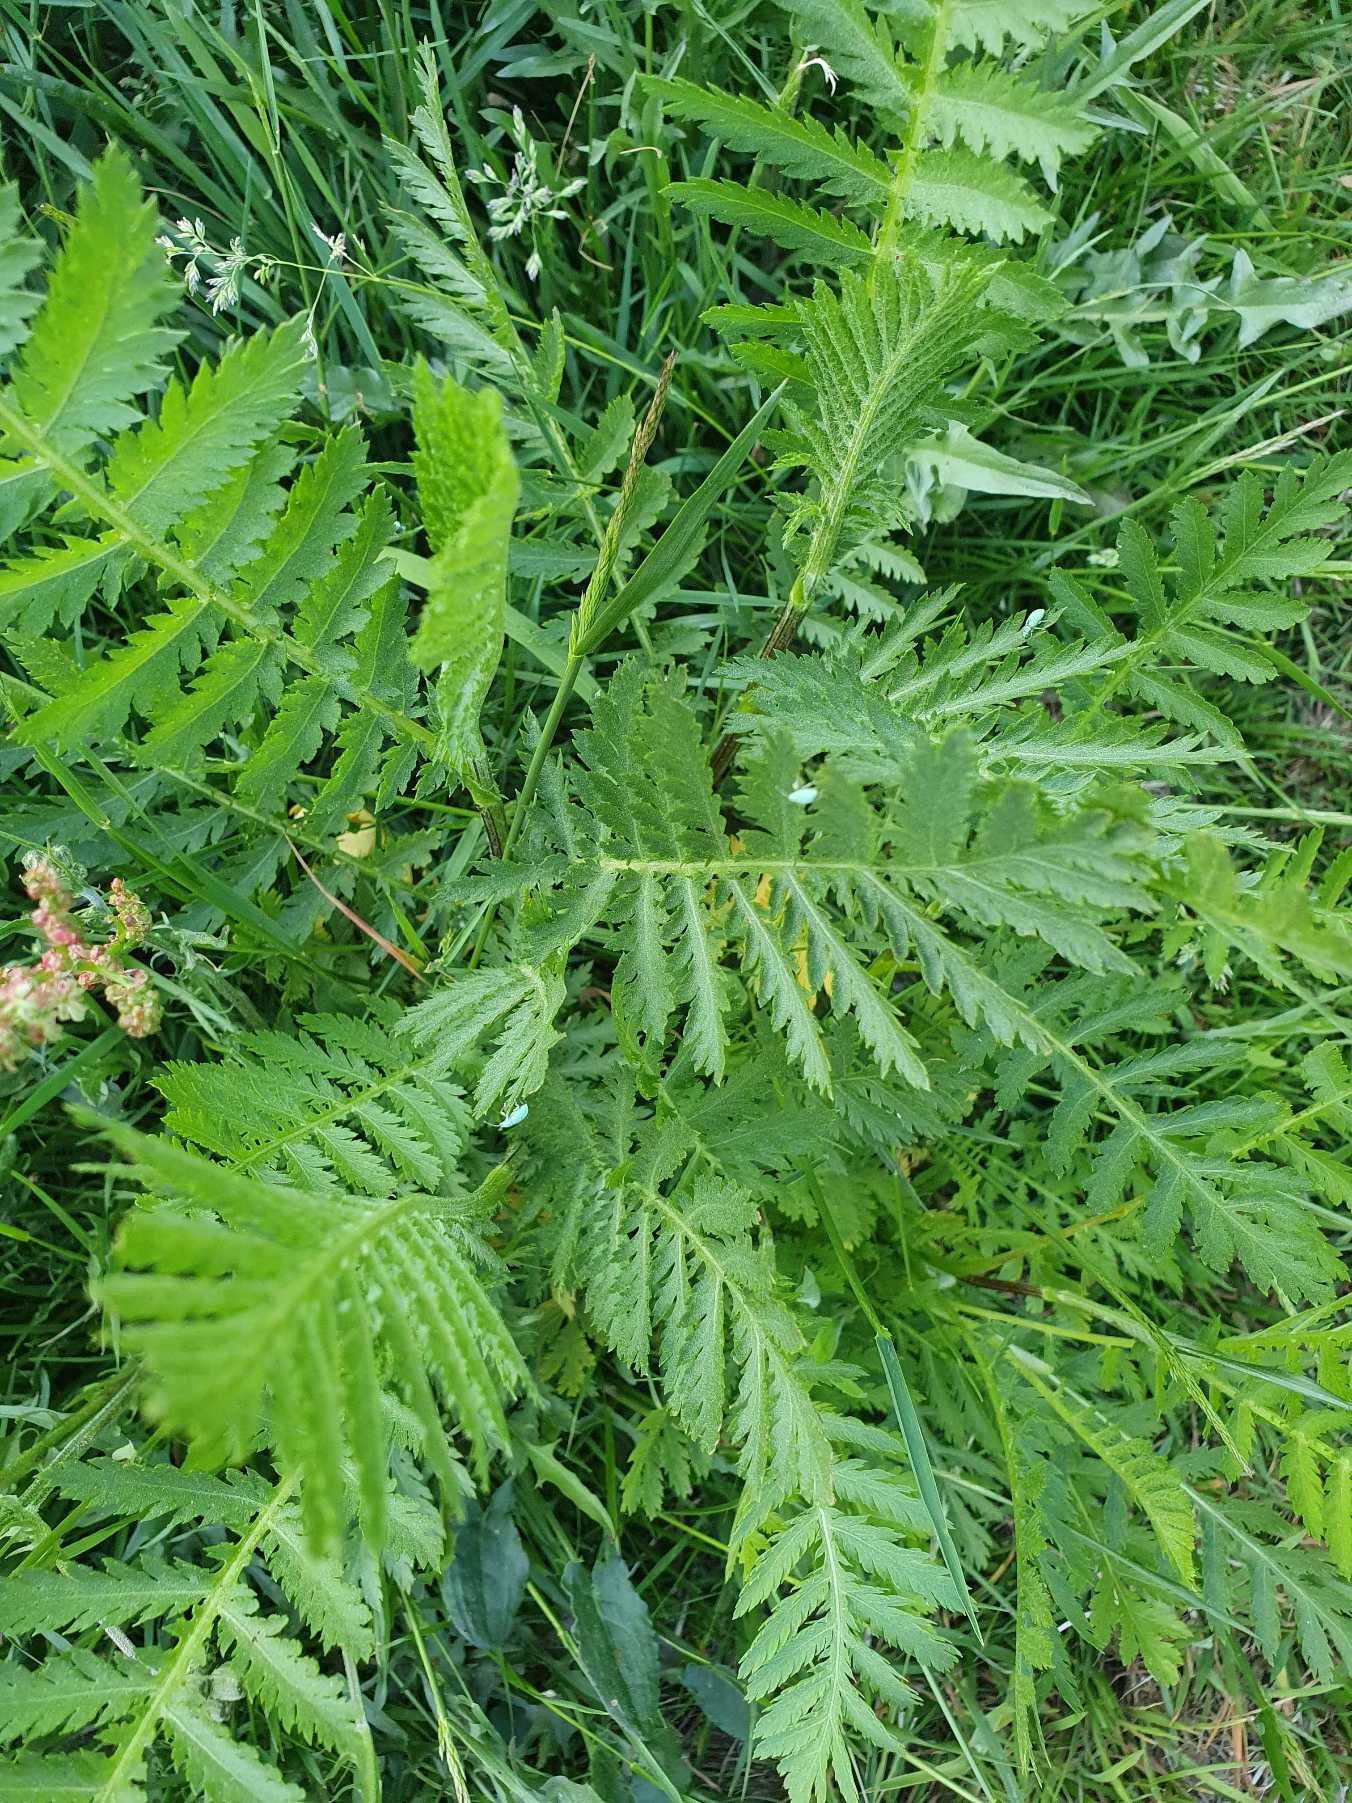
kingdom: Plantae
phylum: Tracheophyta
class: Magnoliopsida
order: Asterales
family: Asteraceae
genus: Tanacetum
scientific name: Tanacetum vulgare
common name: Rejnfan
